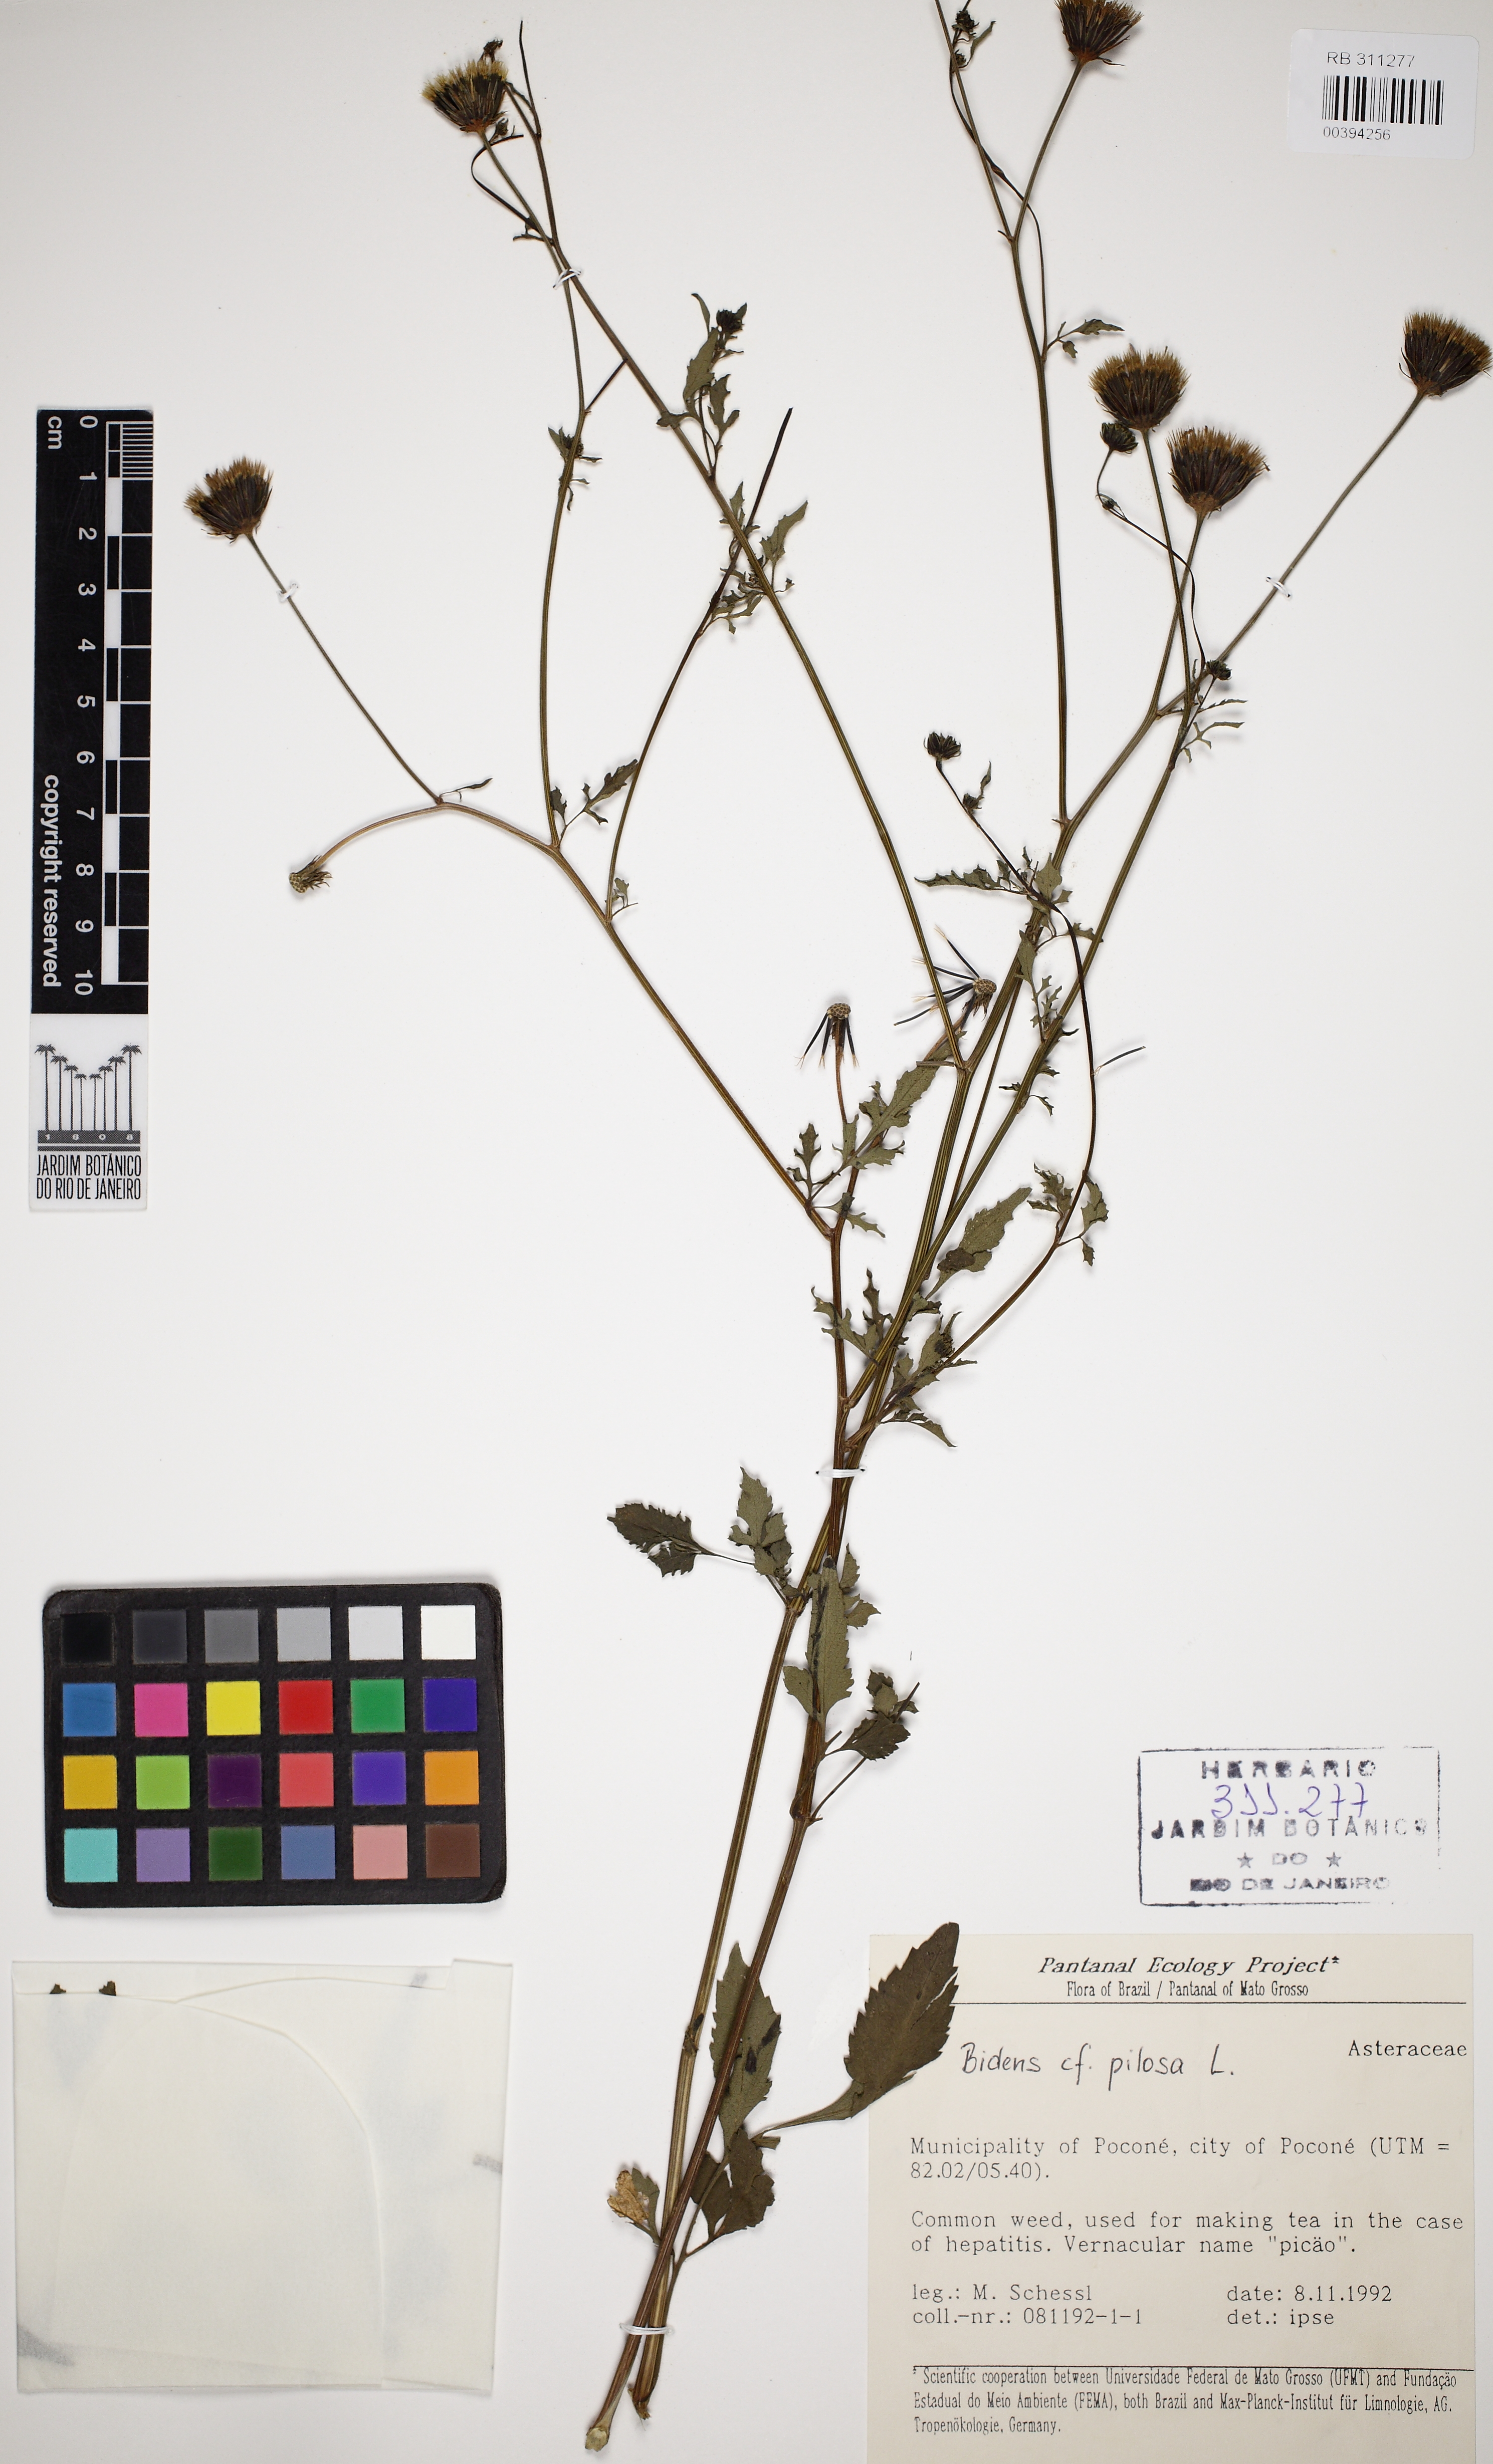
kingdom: Plantae
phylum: Tracheophyta
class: Magnoliopsida
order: Asterales
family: Asteraceae
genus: Bidens
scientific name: Bidens pilosa
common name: Black-jack
